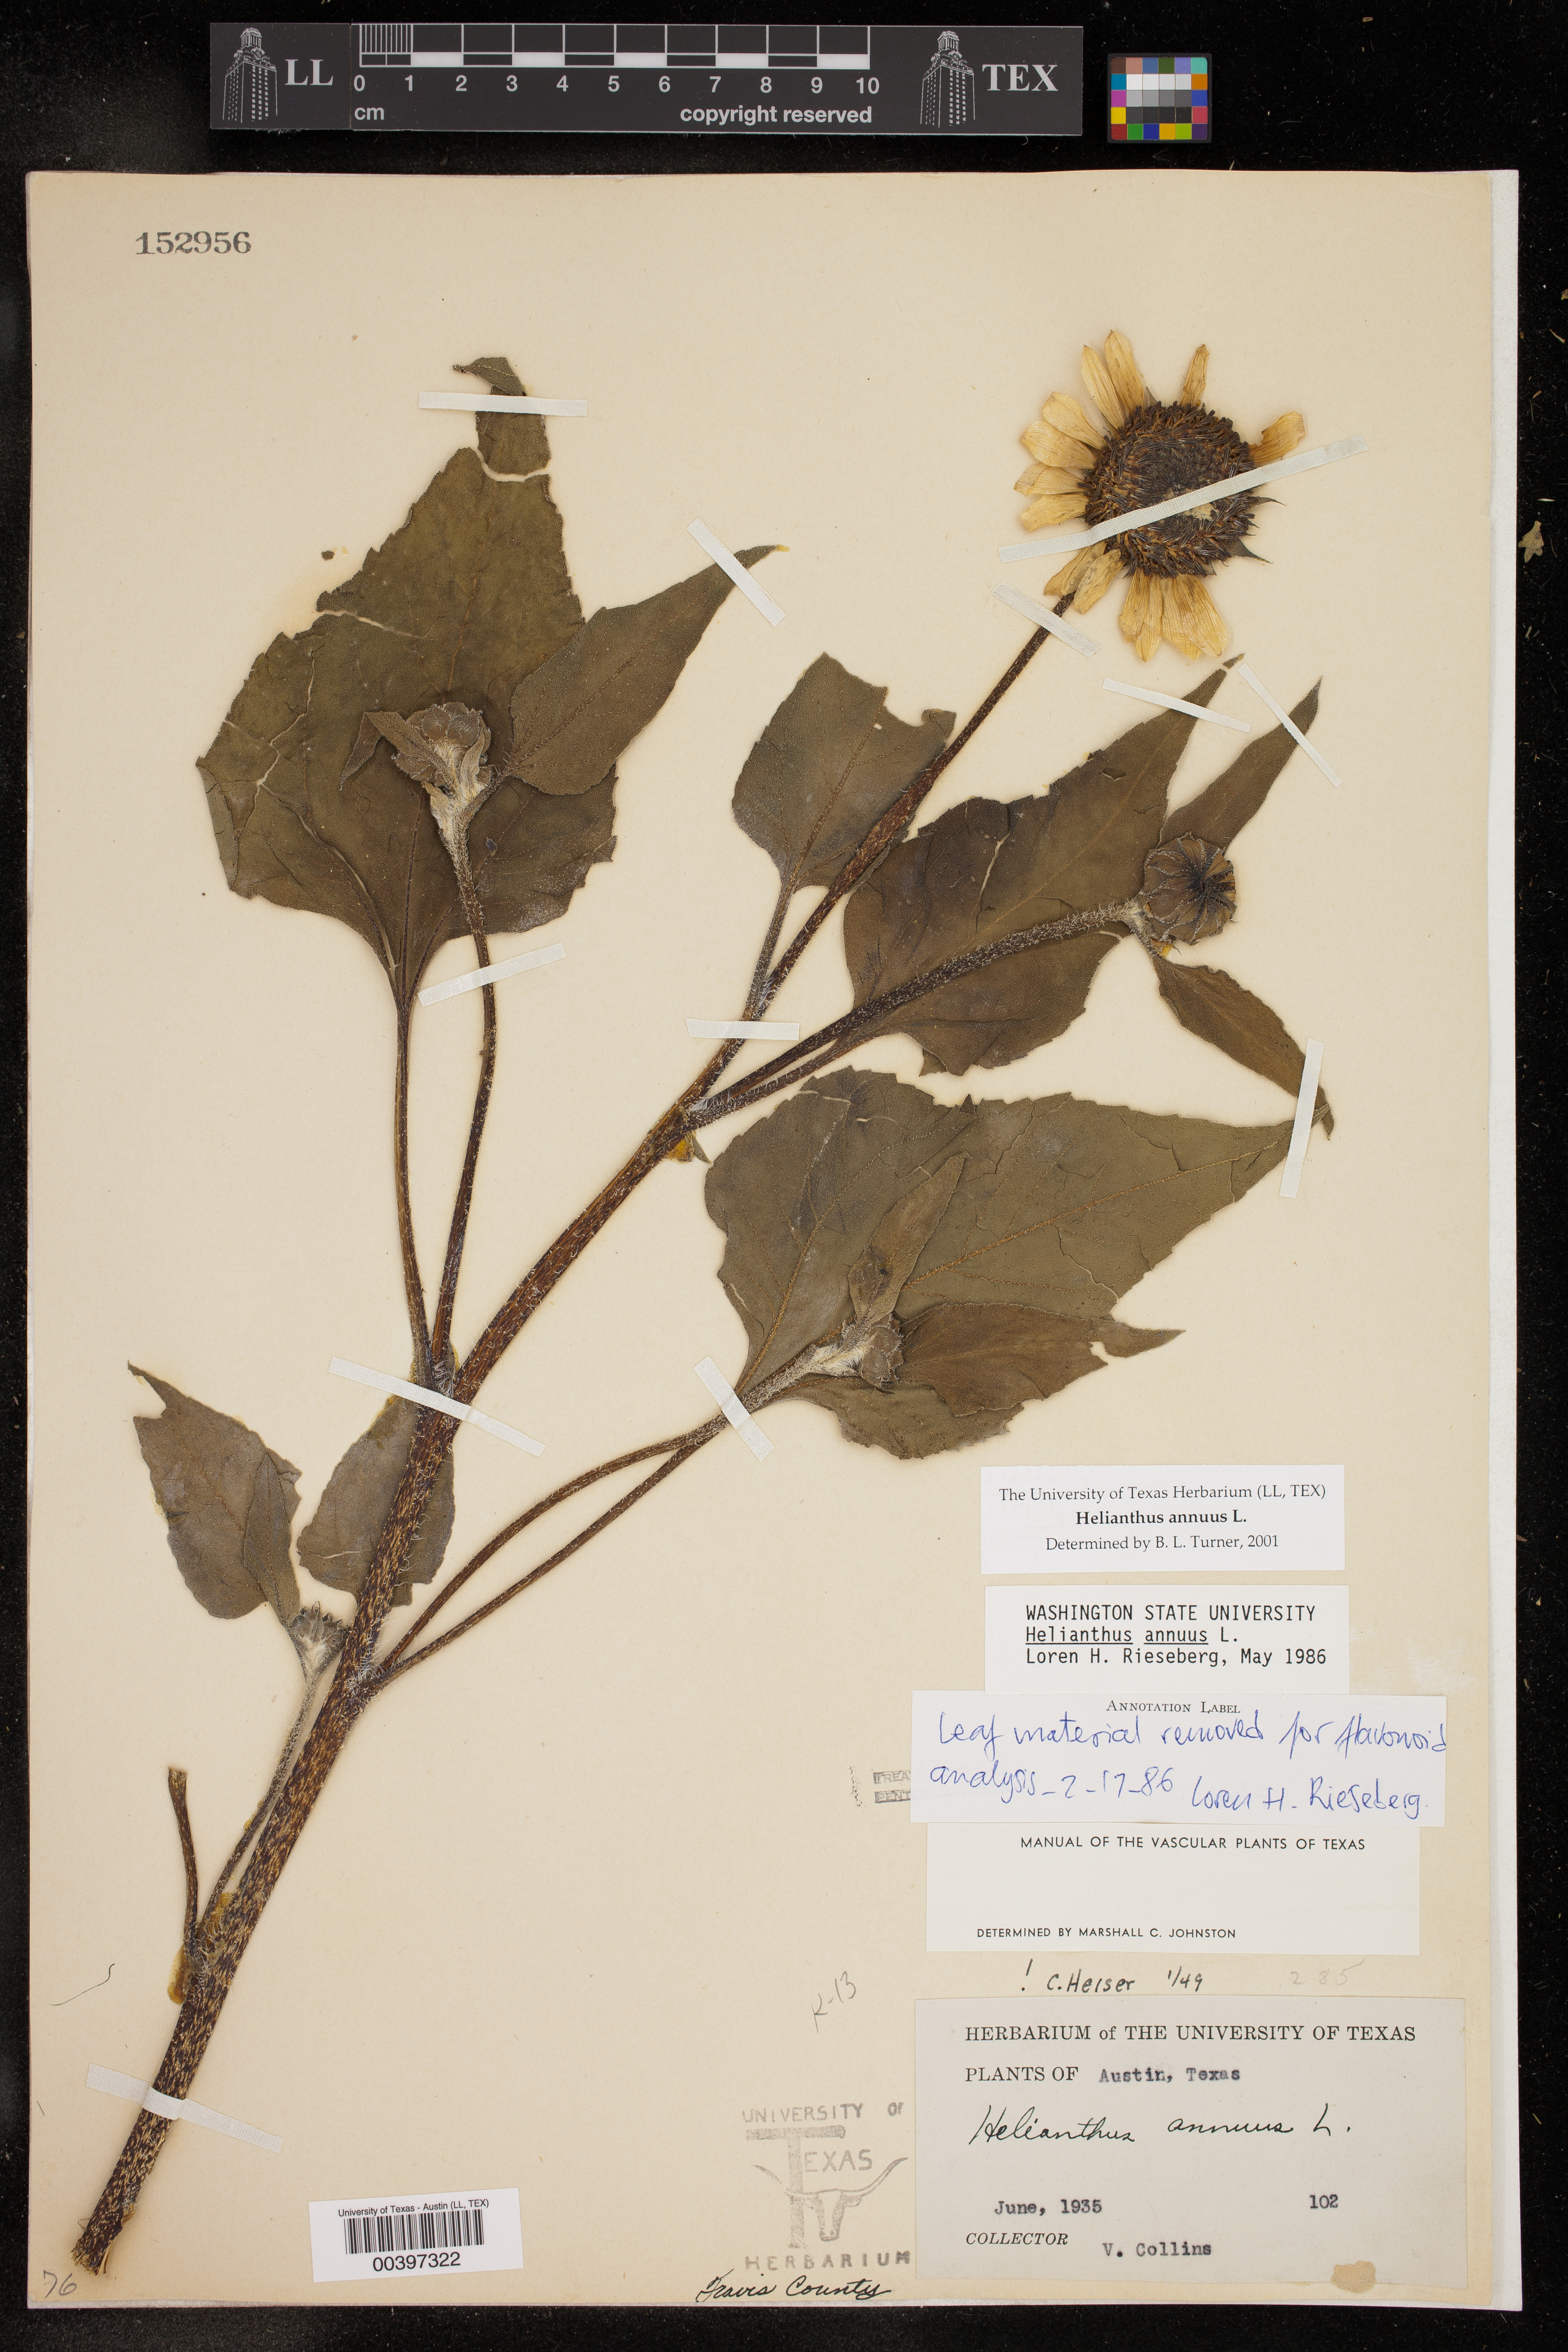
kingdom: Plantae
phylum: Tracheophyta
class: Magnoliopsida
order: Asterales
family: Asteraceae
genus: Helianthus
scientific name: Helianthus annuus
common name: Sunflower
